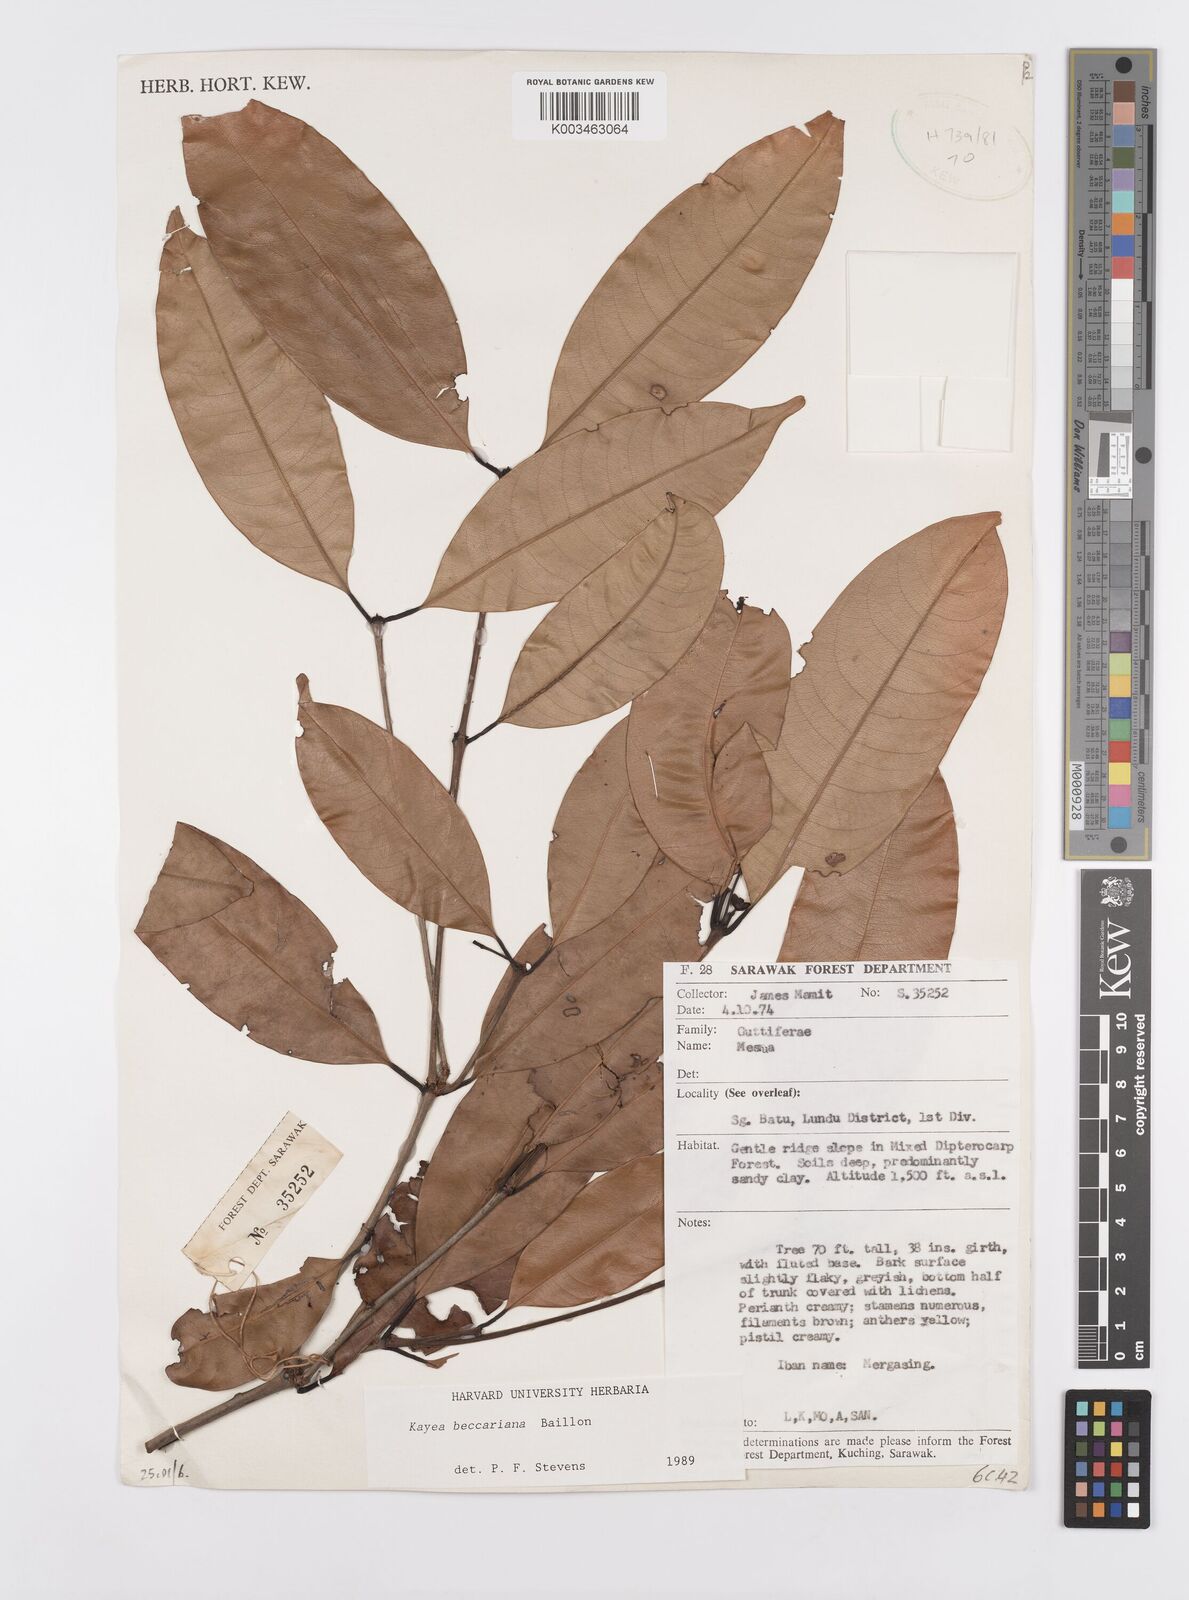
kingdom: Plantae
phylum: Tracheophyta
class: Magnoliopsida
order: Malpighiales
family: Calophyllaceae
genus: Kayea
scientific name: Kayea beccariana
